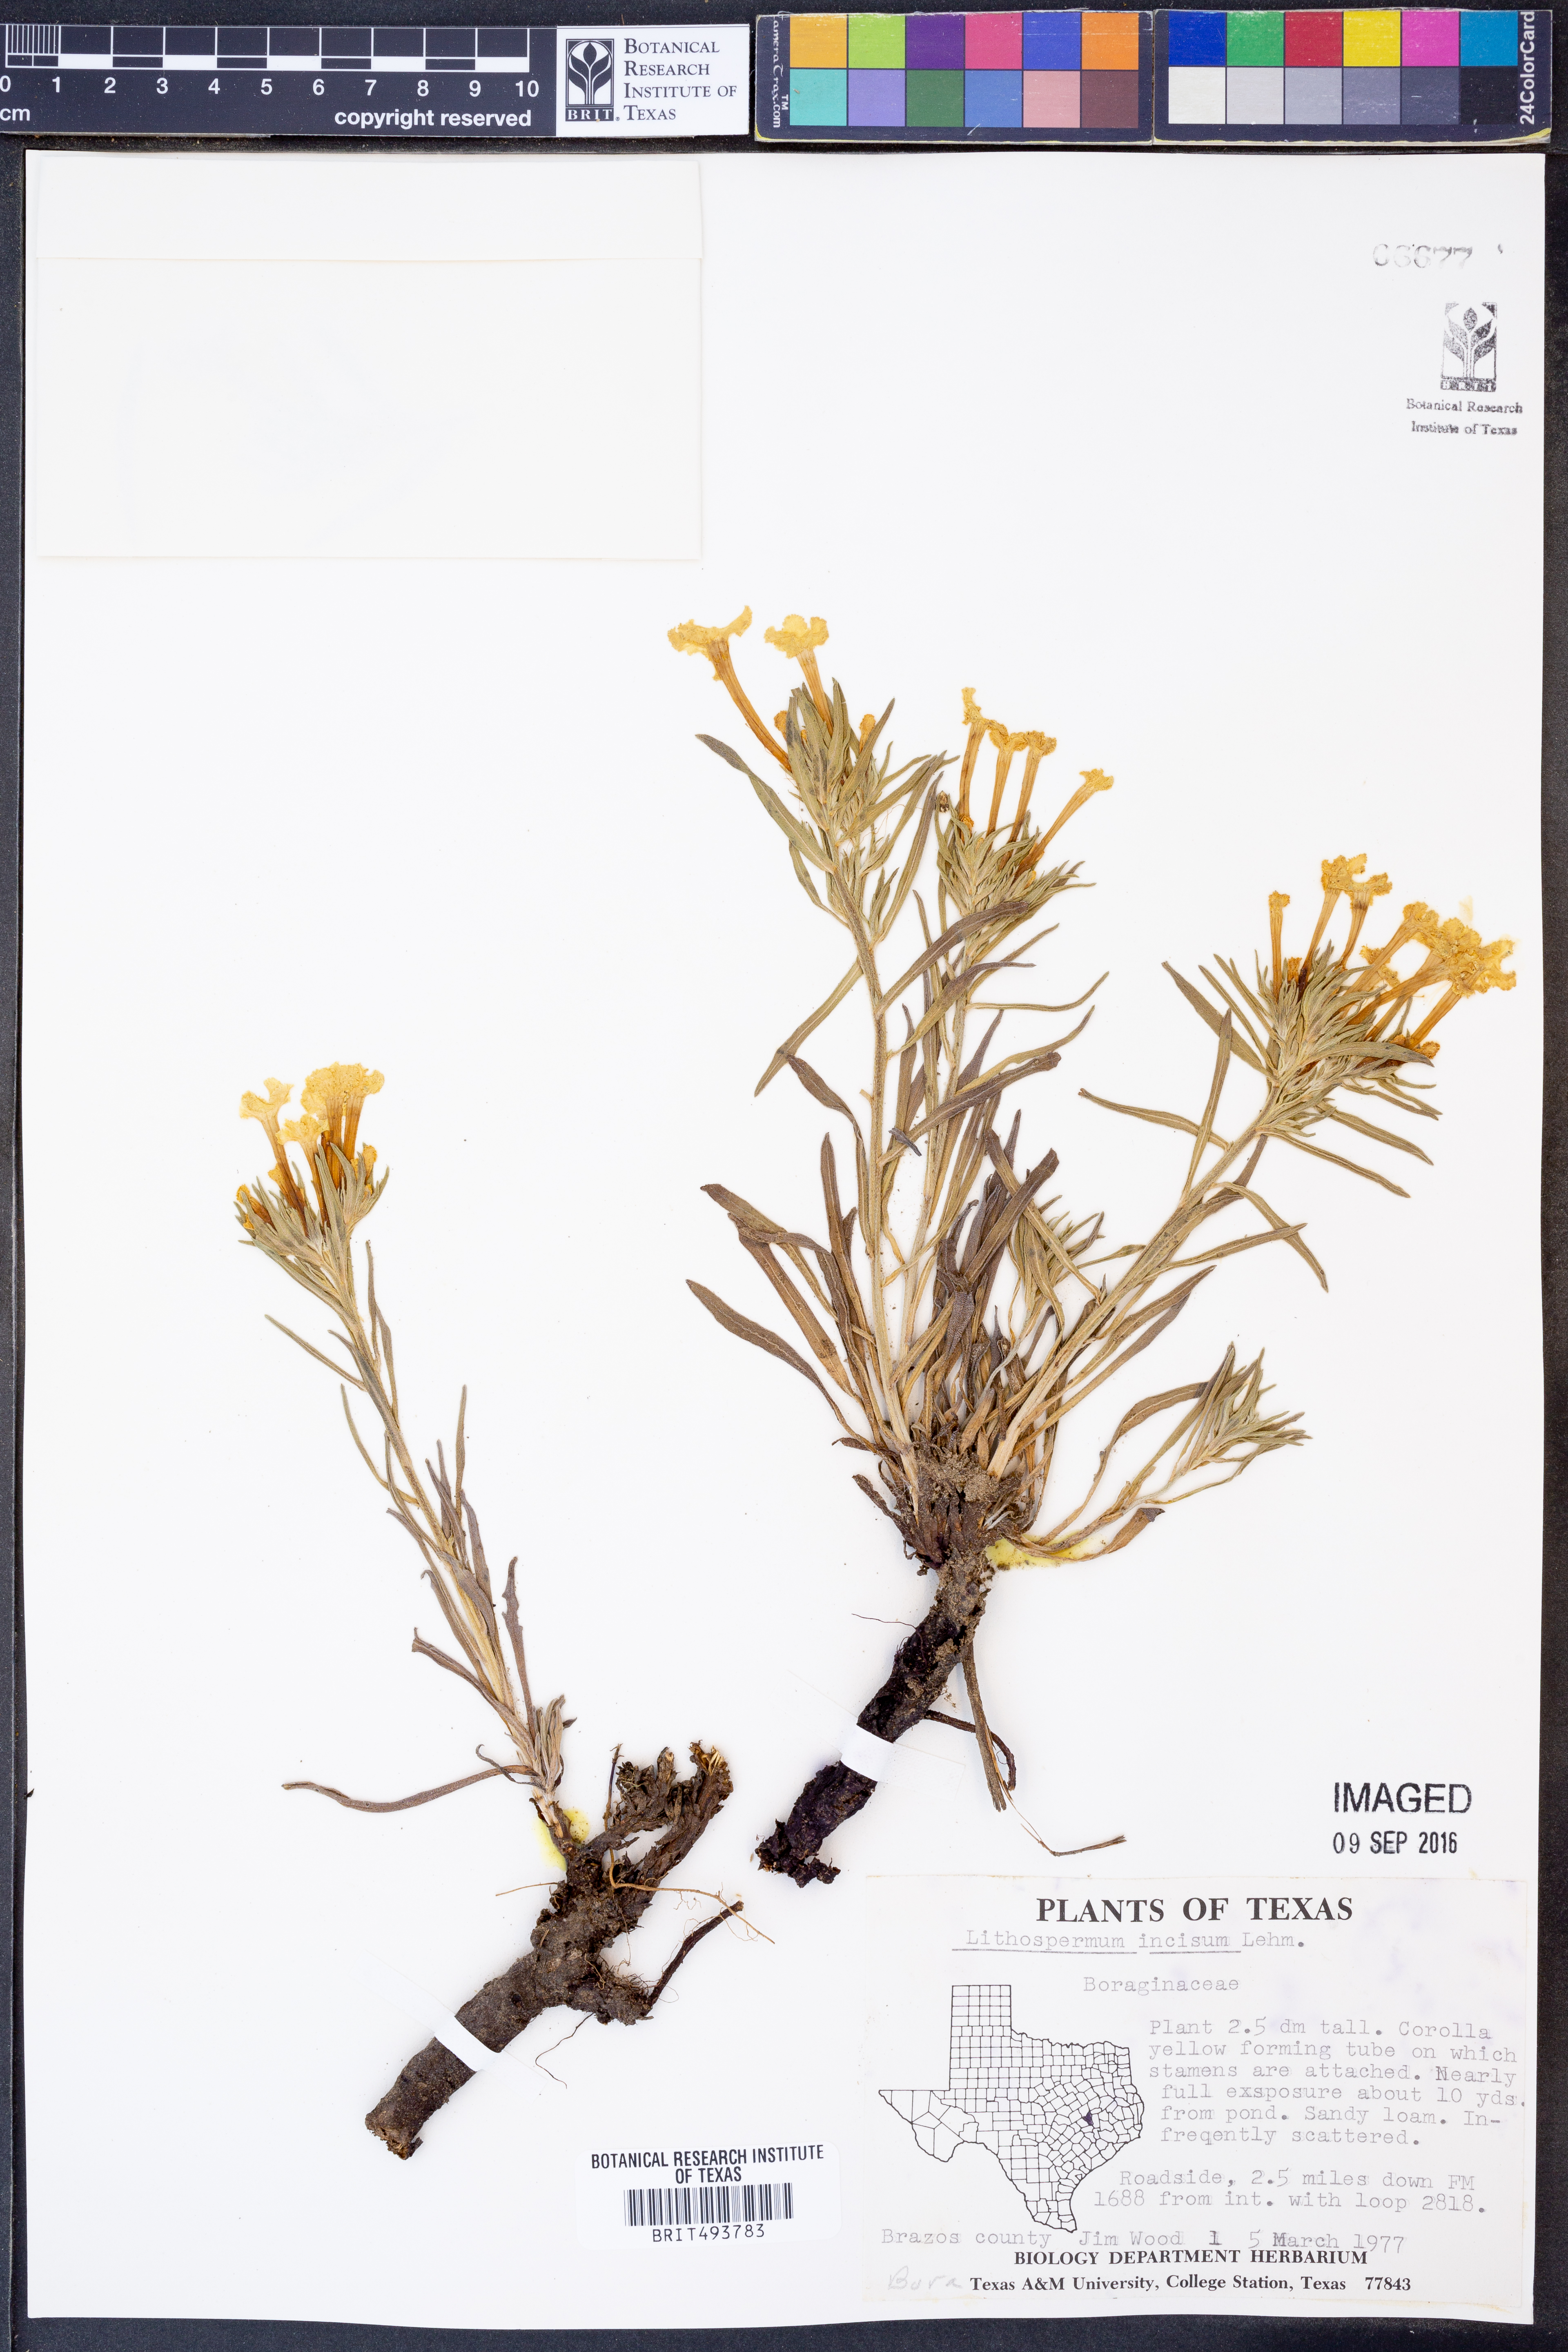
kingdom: Plantae
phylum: Tracheophyta
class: Magnoliopsida
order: Boraginales
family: Boraginaceae
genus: Lithospermum
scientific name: Lithospermum incisum
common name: Fringed gromwell
